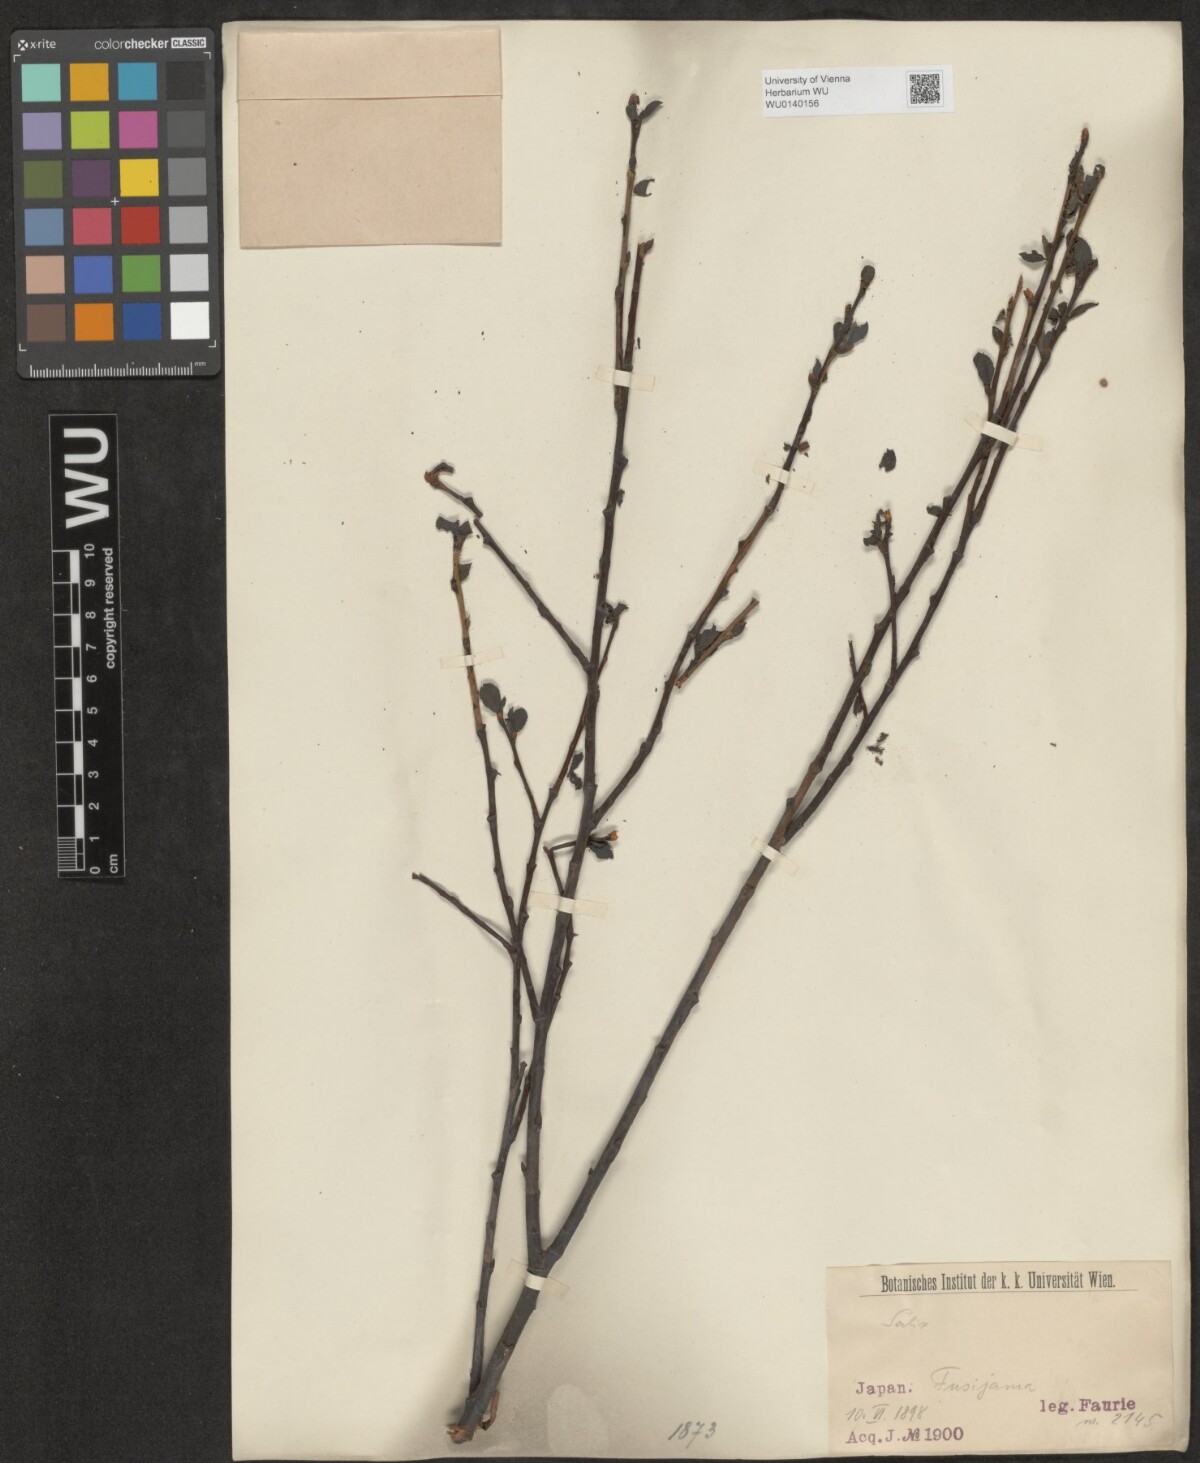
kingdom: Plantae
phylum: Tracheophyta
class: Magnoliopsida
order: Malpighiales
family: Salicaceae
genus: Salix
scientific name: Salix
